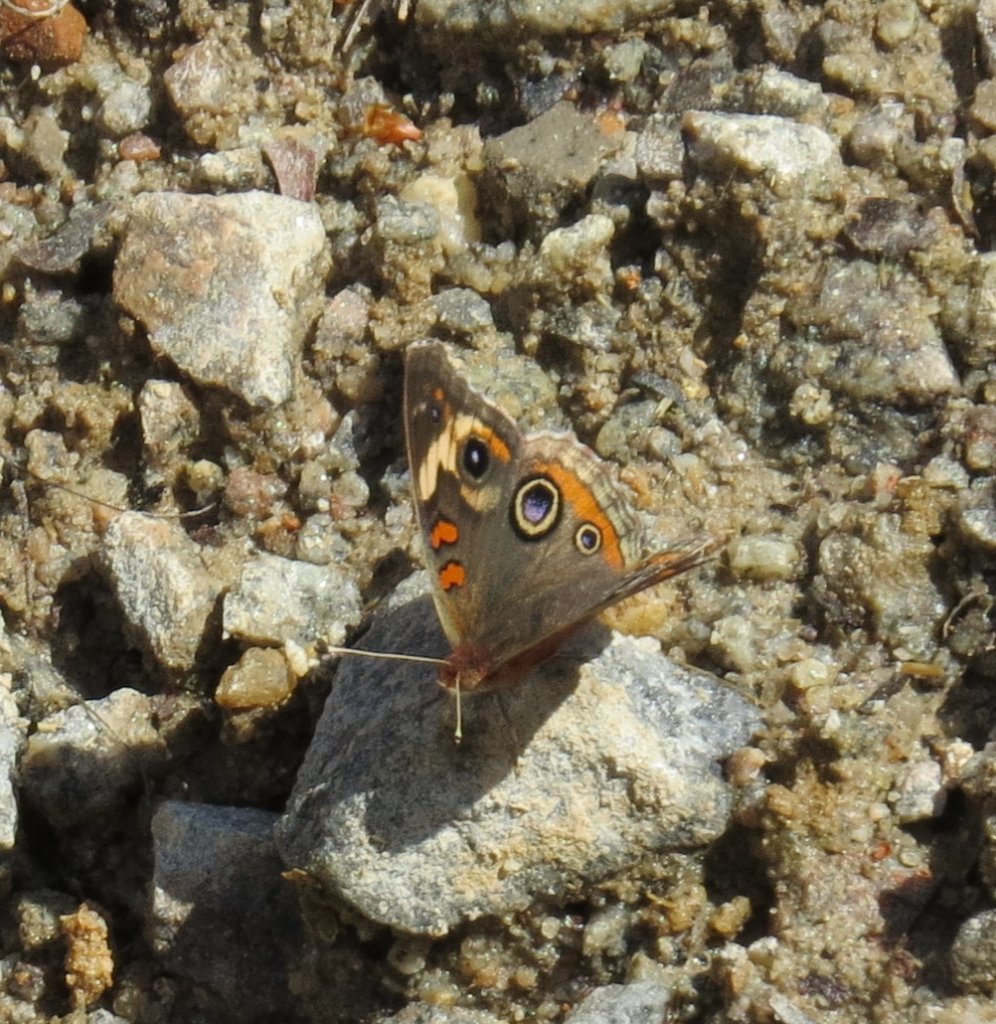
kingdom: Animalia
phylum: Arthropoda
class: Insecta
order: Lepidoptera
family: Nymphalidae
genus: Junonia
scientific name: Junonia coenia
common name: Common Buckeye
